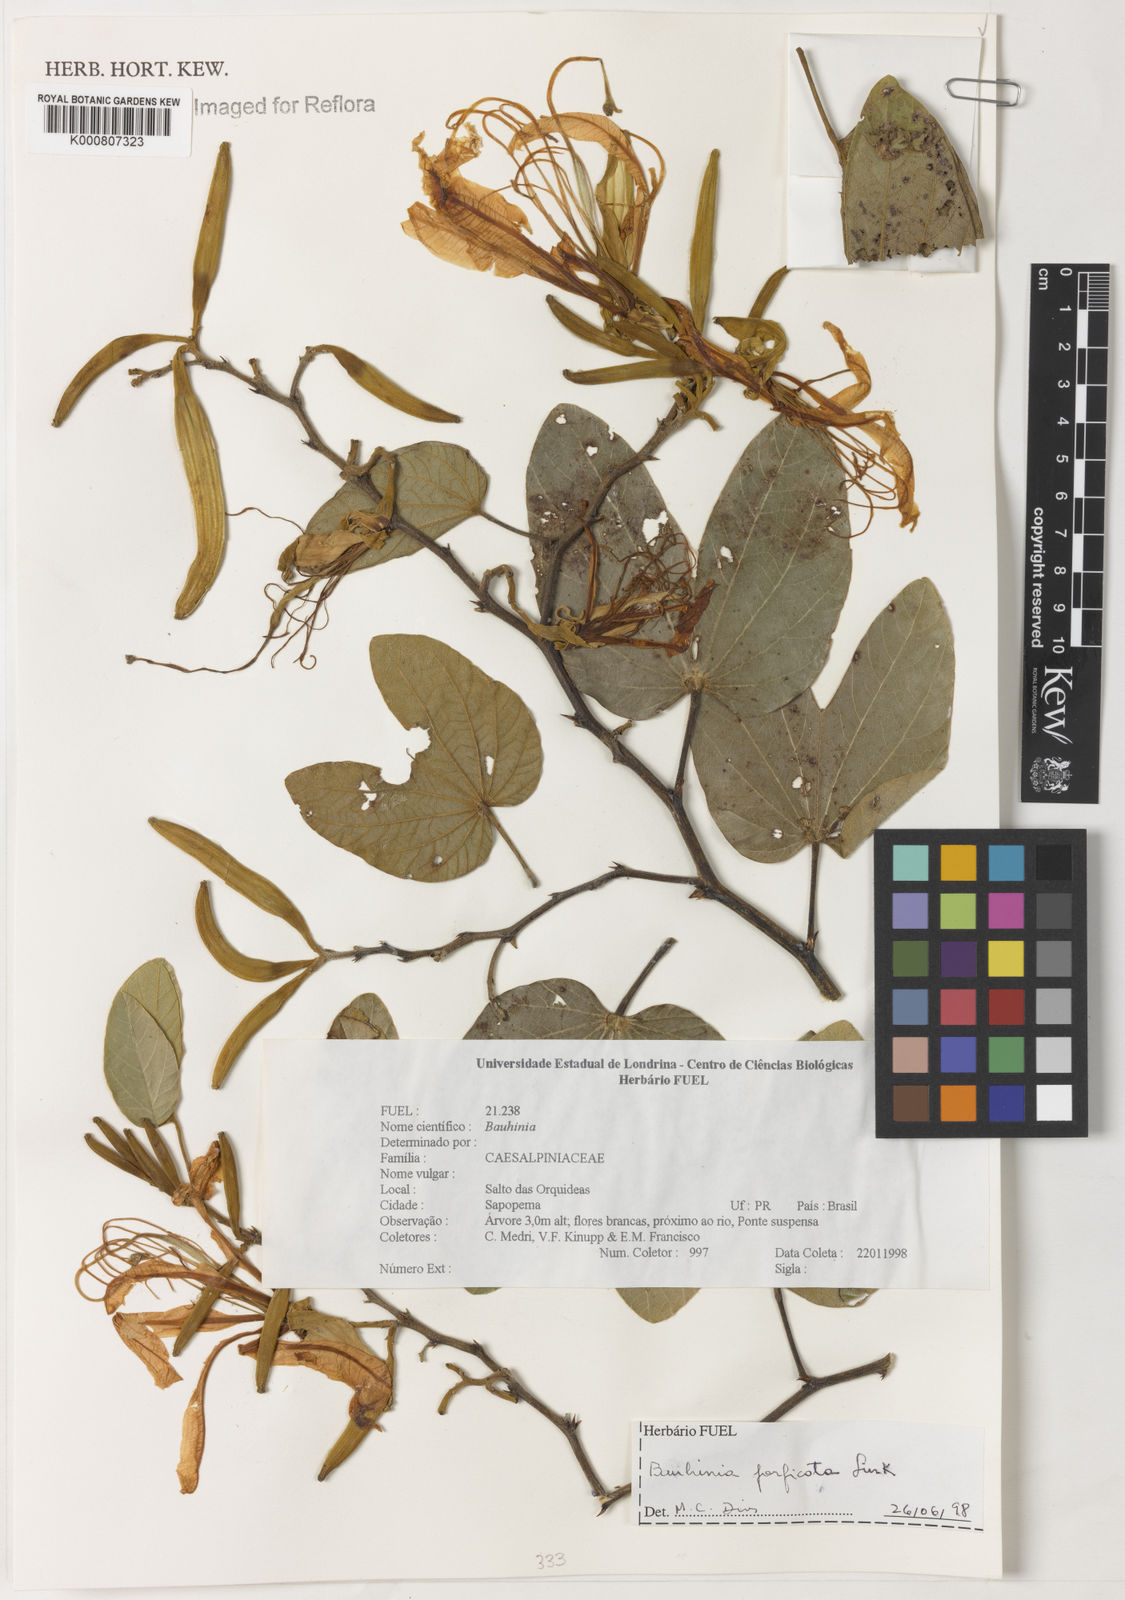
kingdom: Plantae
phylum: Tracheophyta
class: Magnoliopsida
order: Fabales
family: Fabaceae
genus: Bauhinia
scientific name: Bauhinia forficata
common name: Orchid tree
